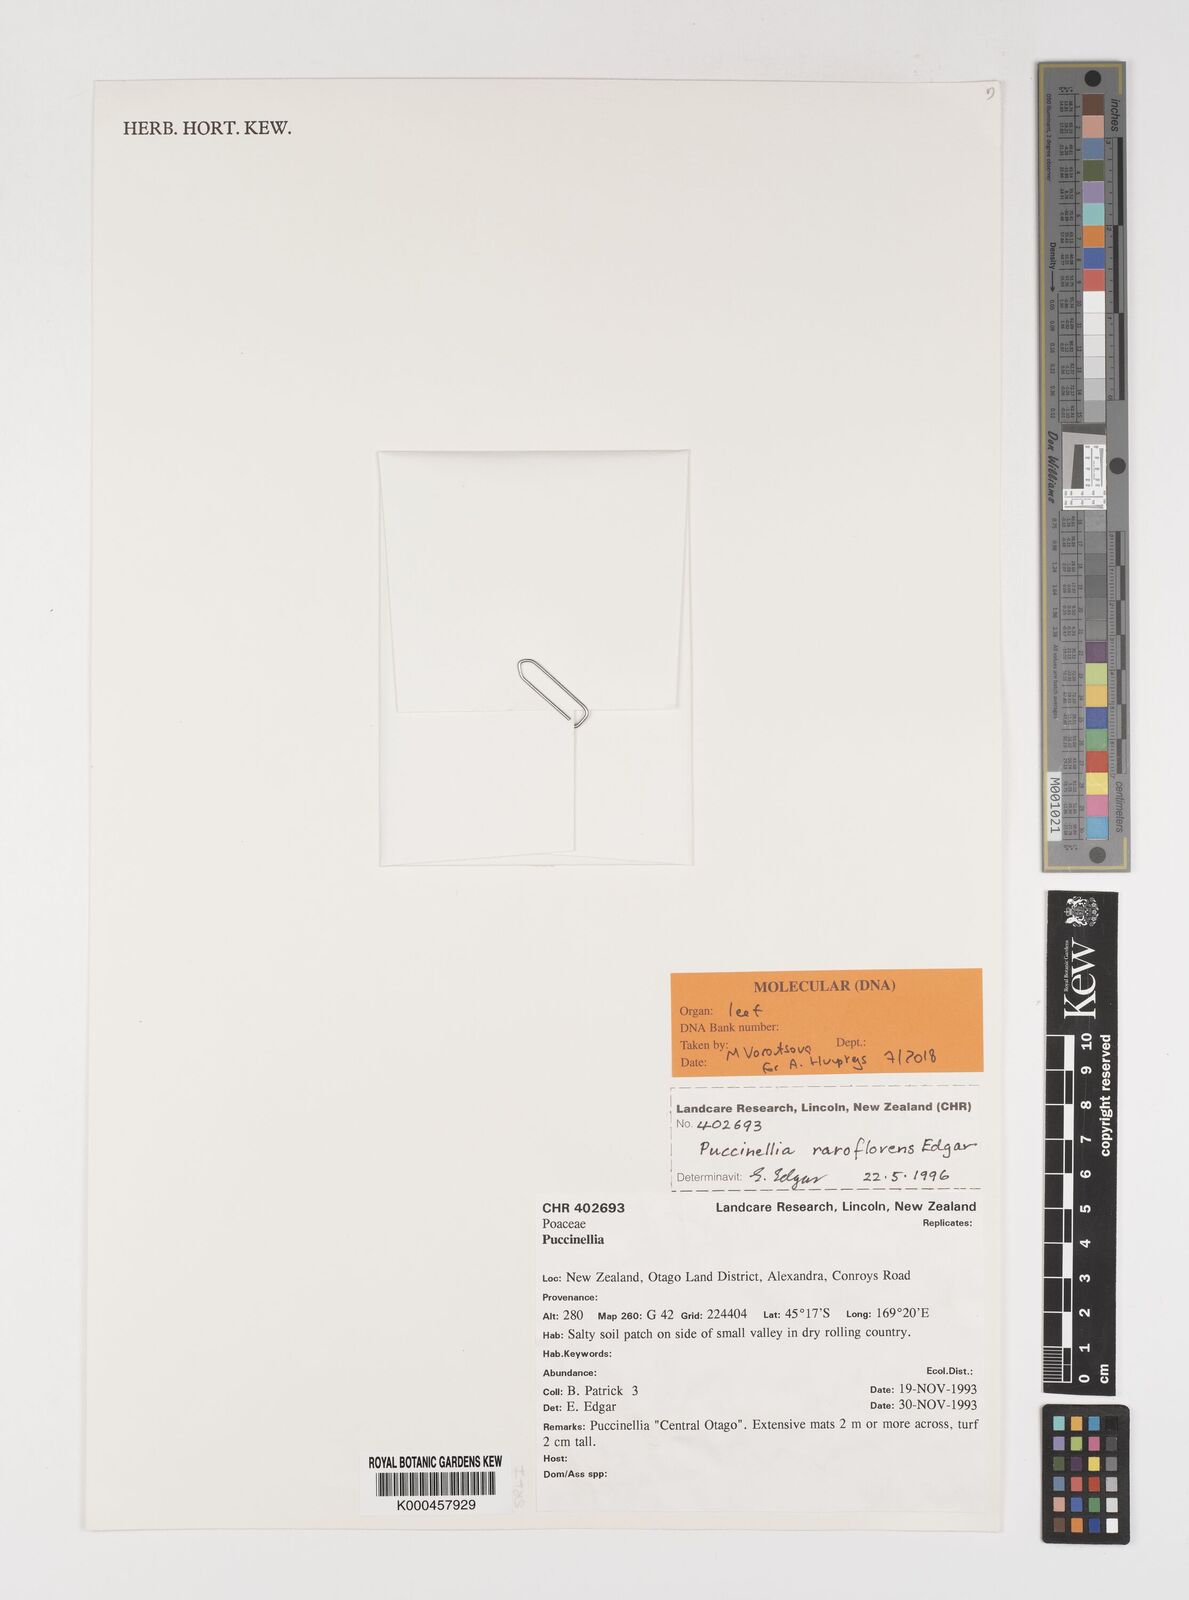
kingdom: Plantae
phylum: Tracheophyta
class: Liliopsida
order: Poales
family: Poaceae
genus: Puccinellia
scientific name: Puccinellia raroflorens
